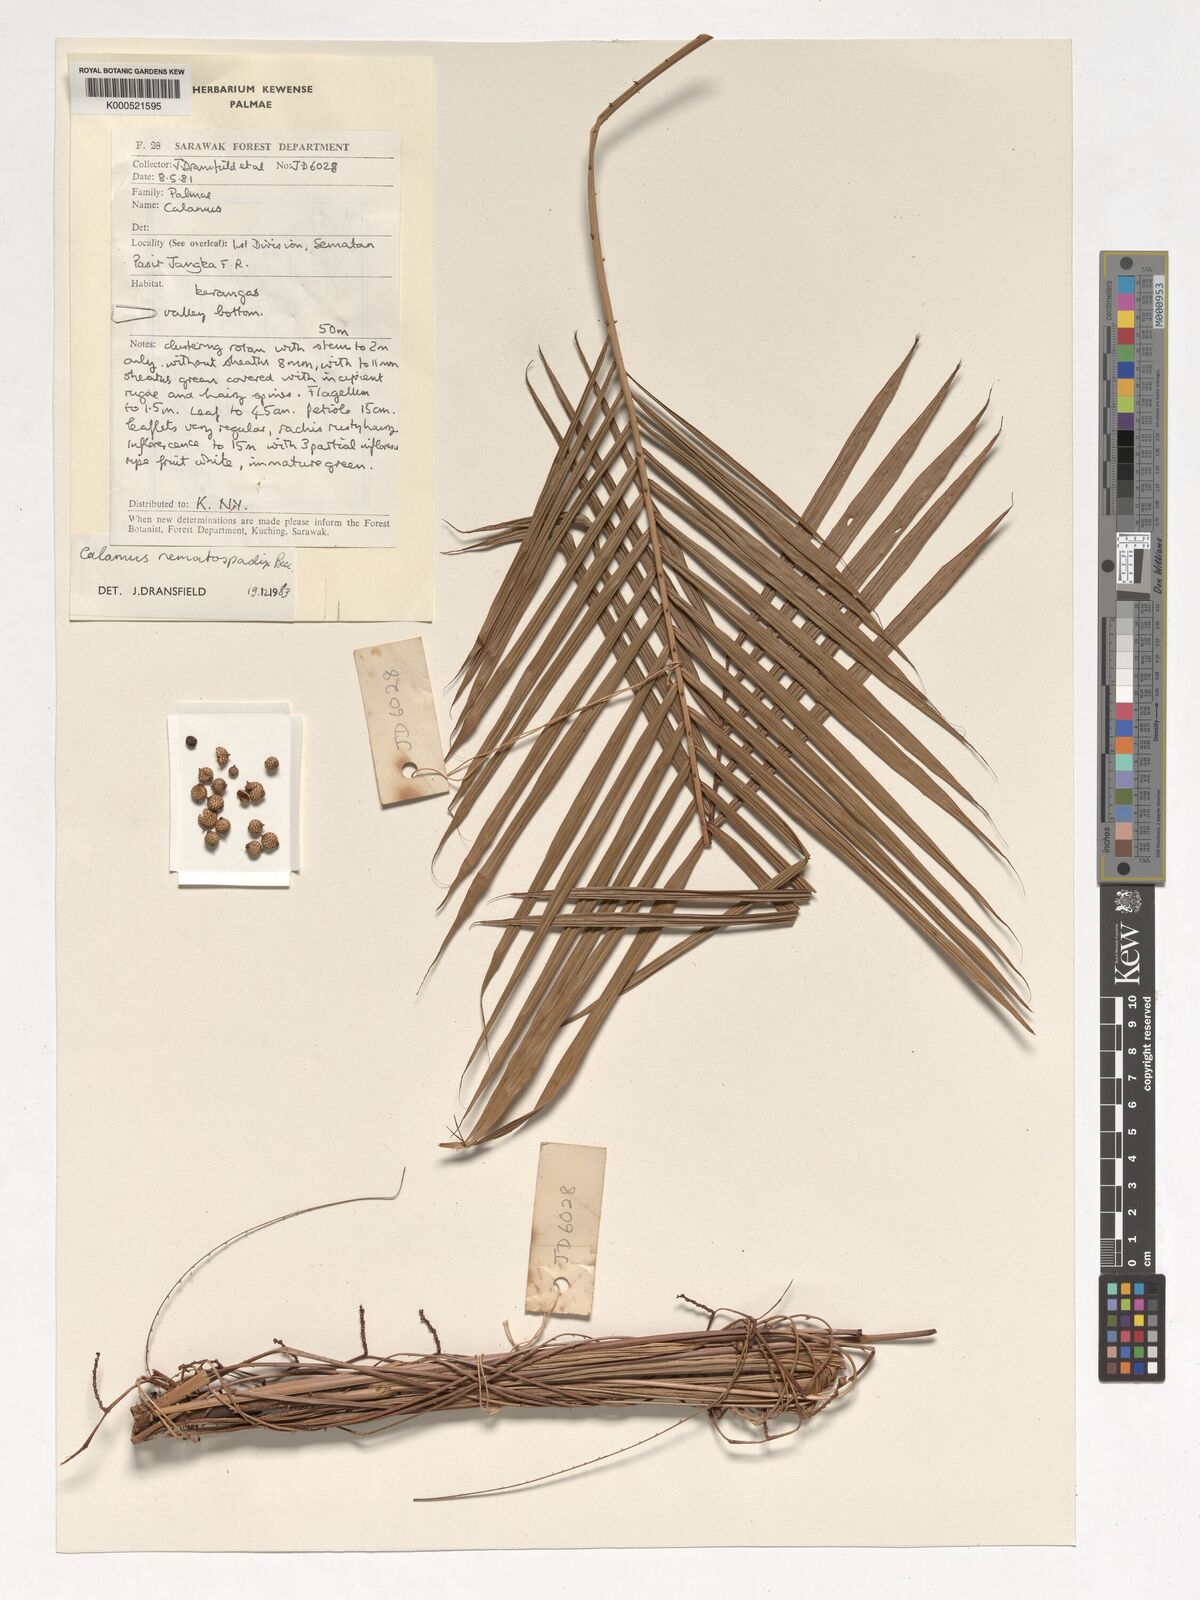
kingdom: Plantae
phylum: Tracheophyta
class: Liliopsida
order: Arecales
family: Arecaceae
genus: Calamus
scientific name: Calamus nematospadix
